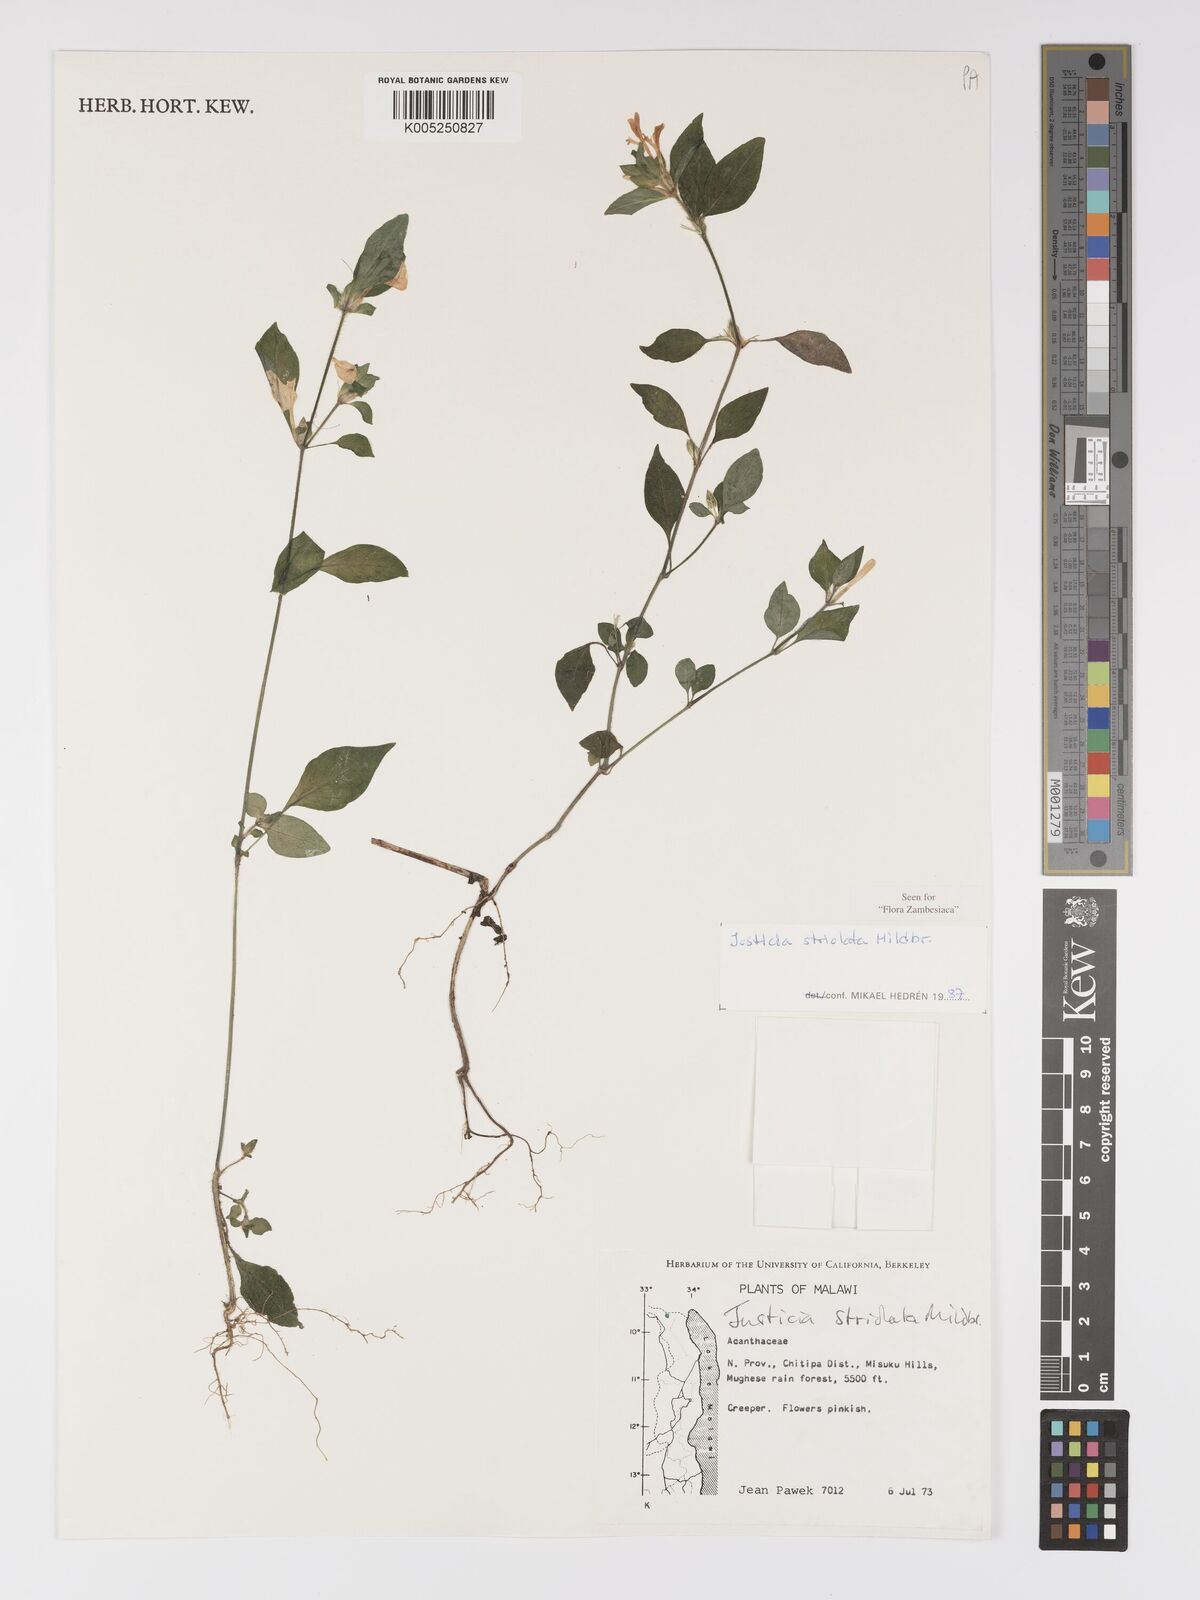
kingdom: Plantae
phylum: Tracheophyta
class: Magnoliopsida
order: Lamiales
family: Acanthaceae
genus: Justicia
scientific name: Justicia striolata
